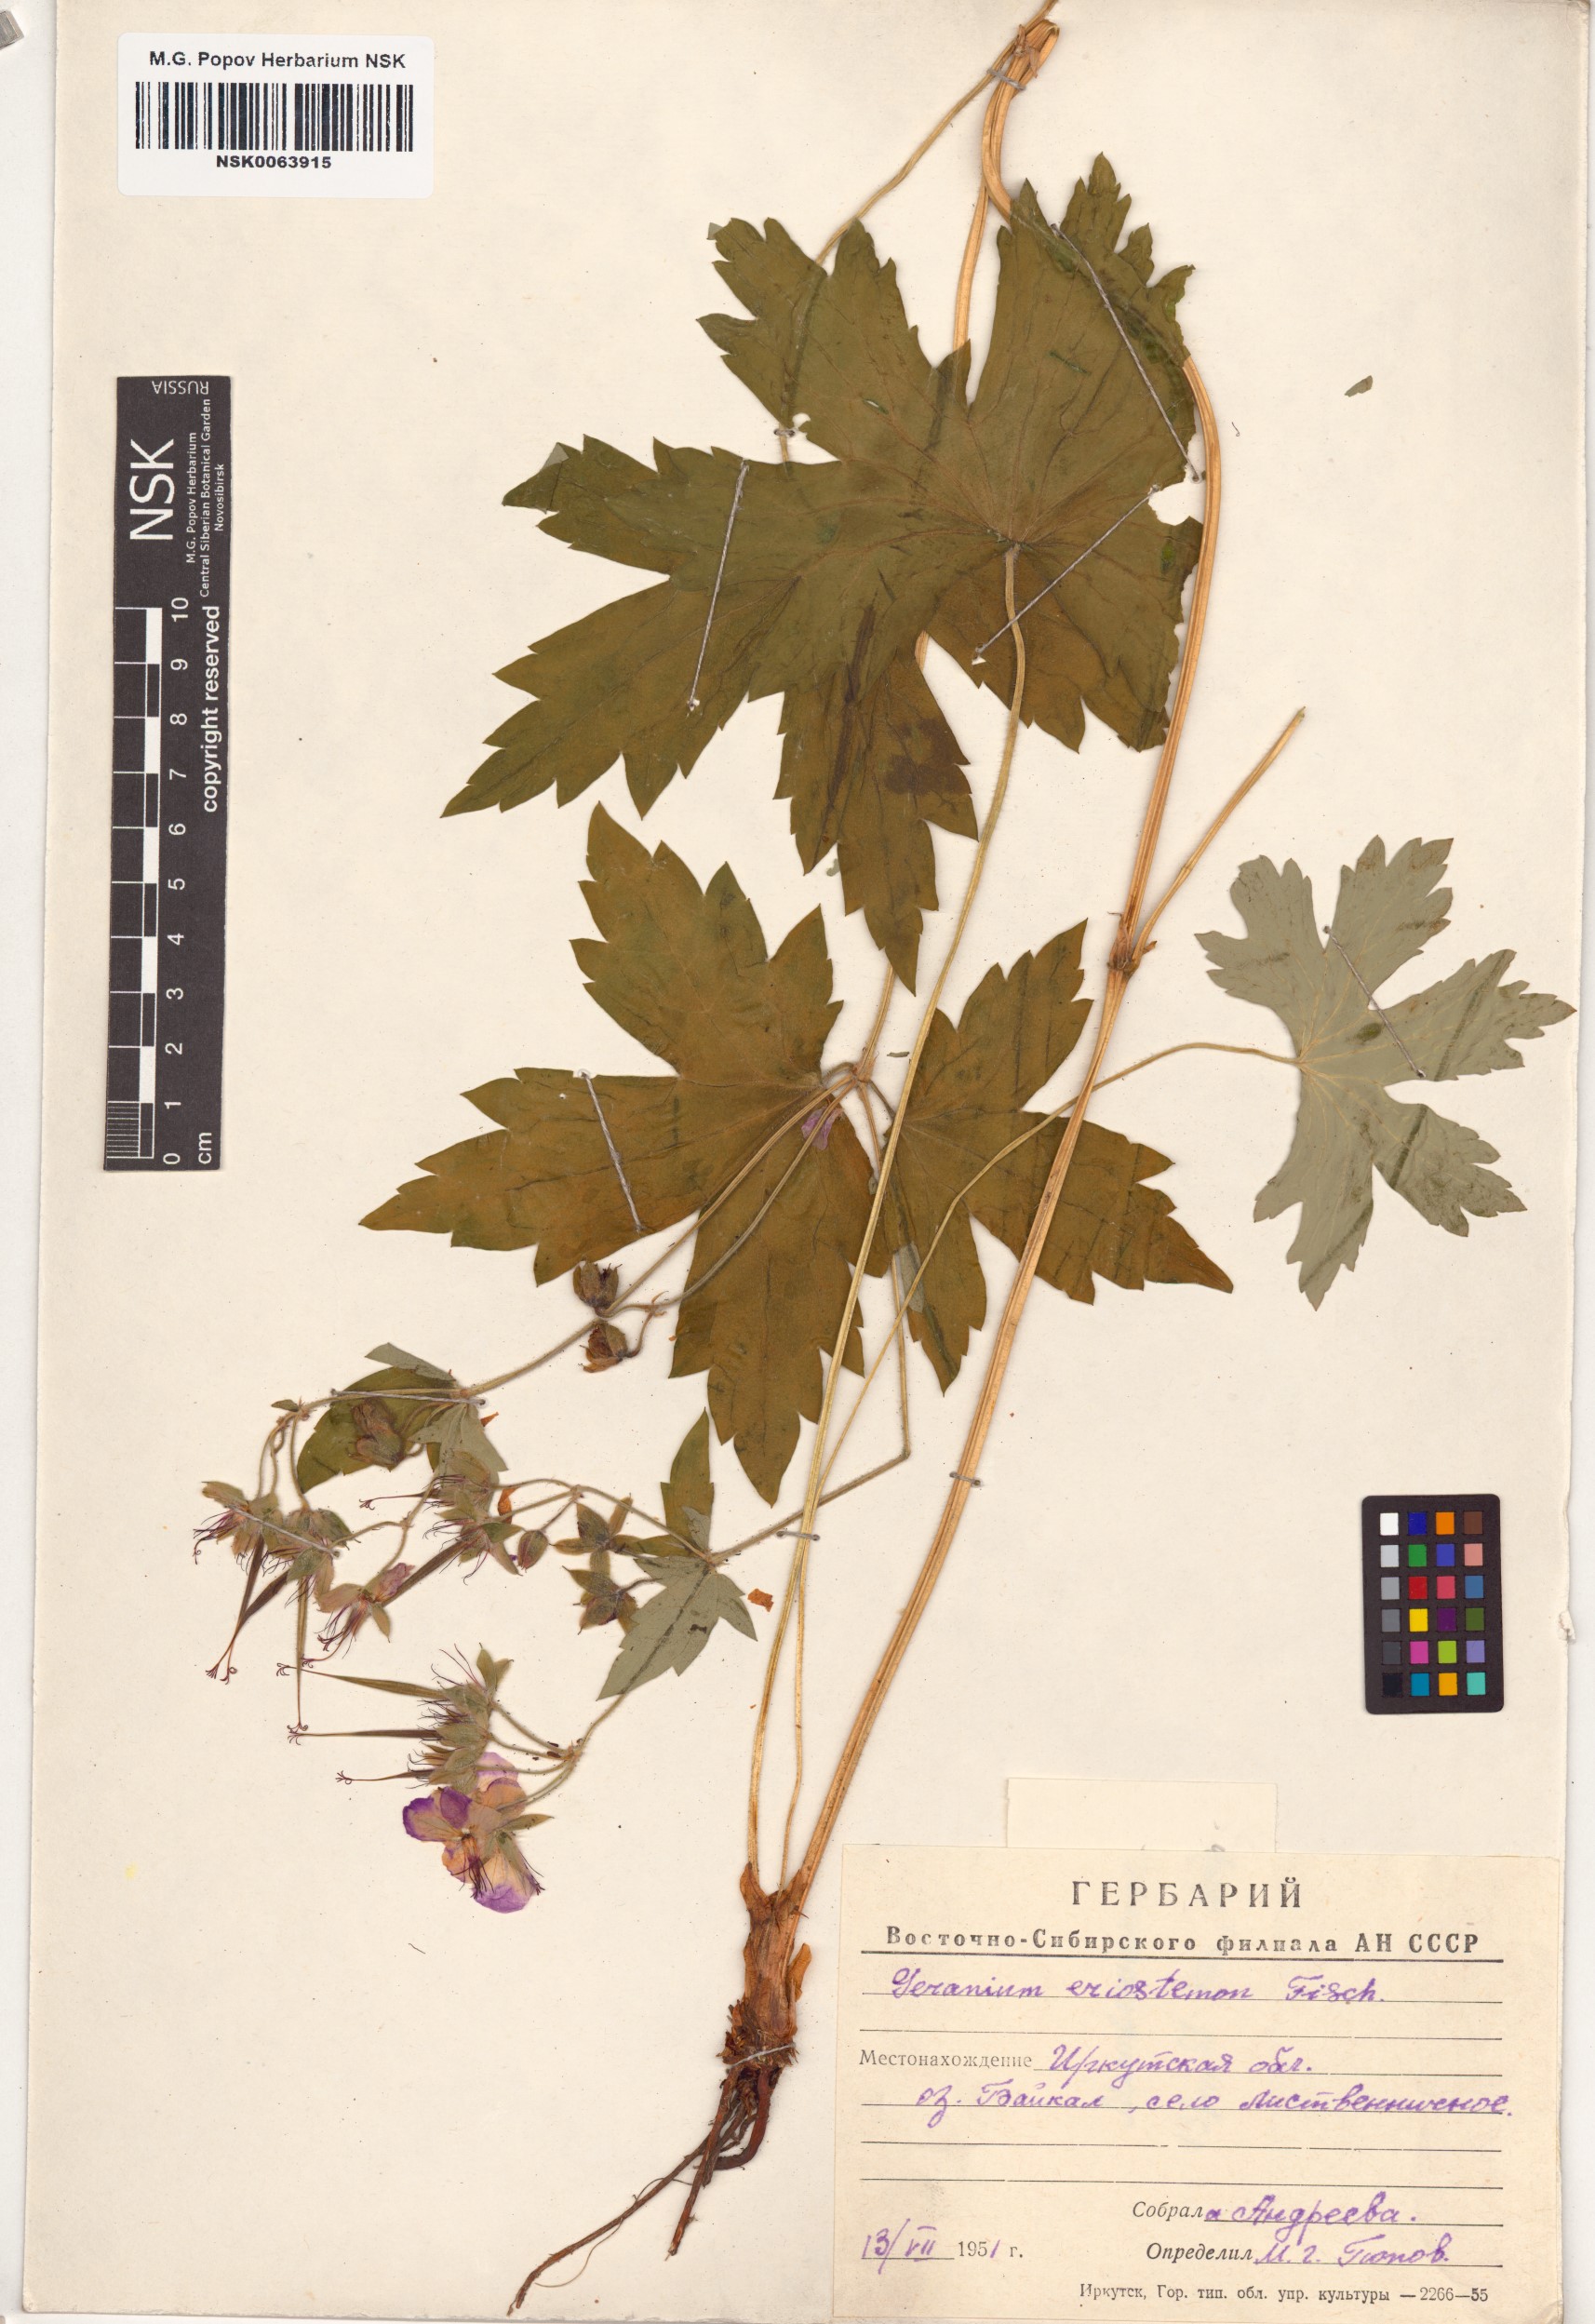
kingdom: Plantae
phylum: Tracheophyta
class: Magnoliopsida
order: Geraniales
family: Geraniaceae
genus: Geranium
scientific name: Geranium platyanthum
